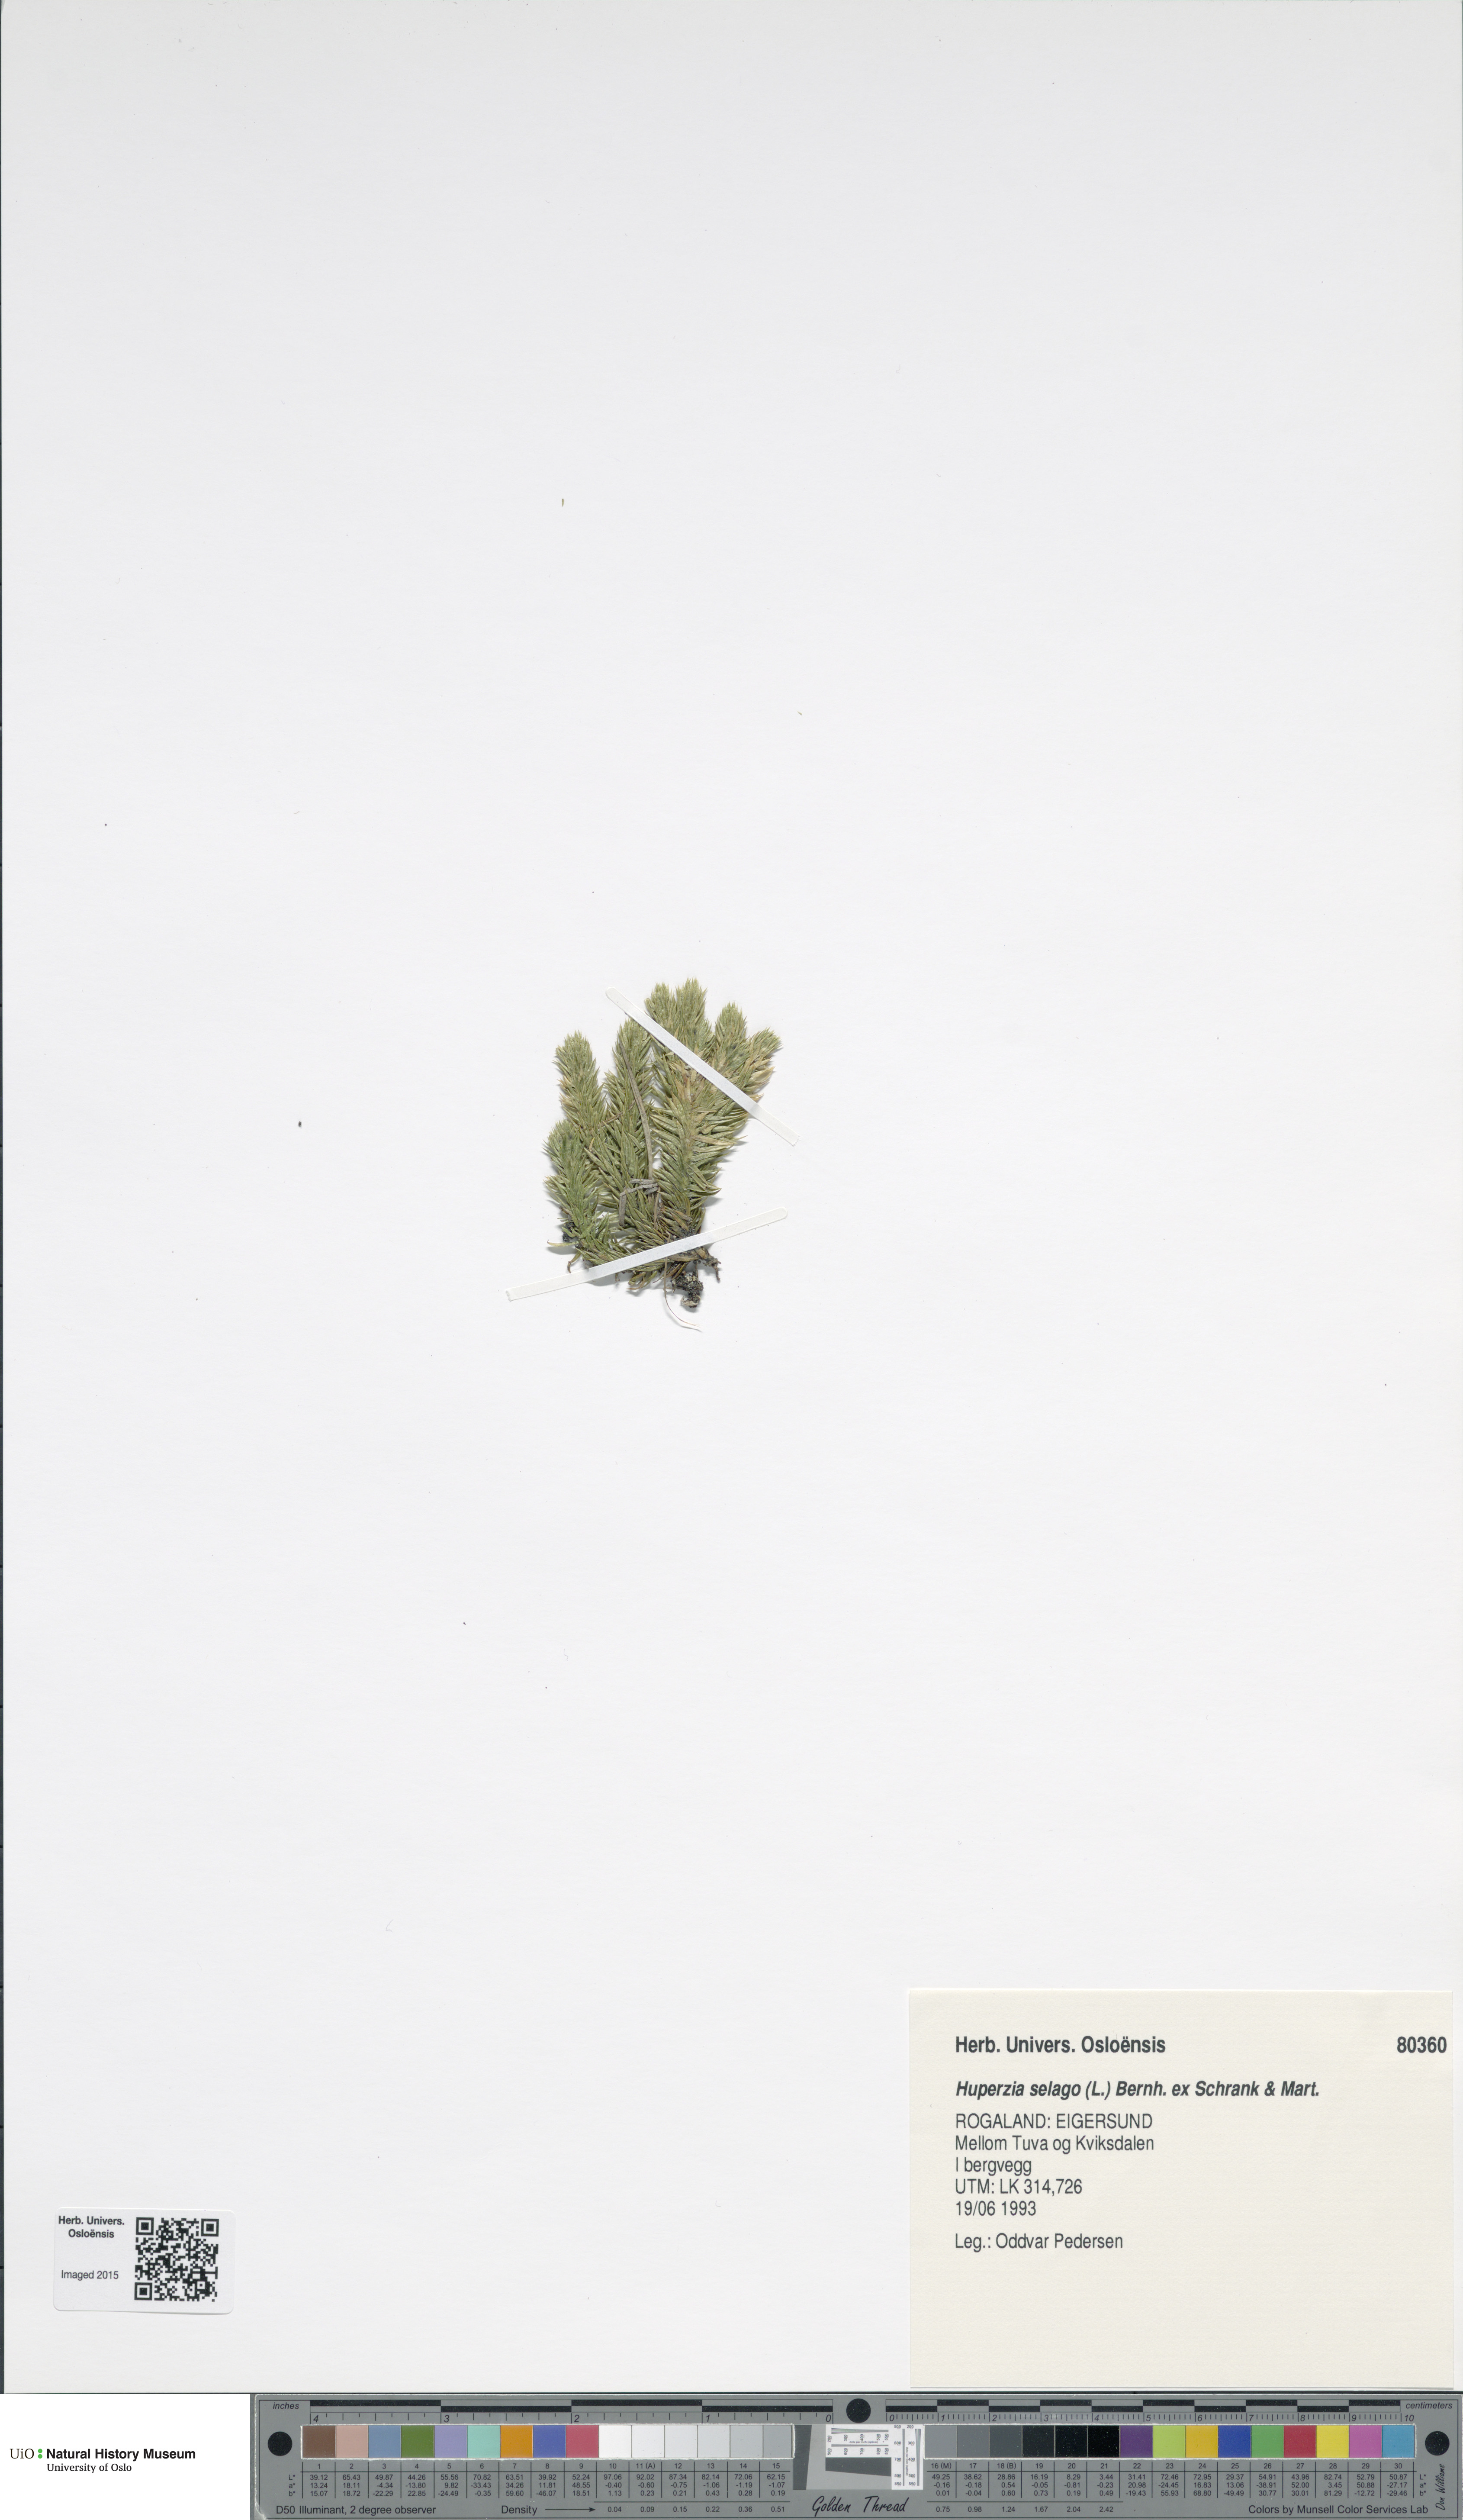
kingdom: Plantae
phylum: Tracheophyta
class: Lycopodiopsida
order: Lycopodiales
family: Lycopodiaceae
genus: Huperzia
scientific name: Huperzia selago
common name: Northern firmoss
